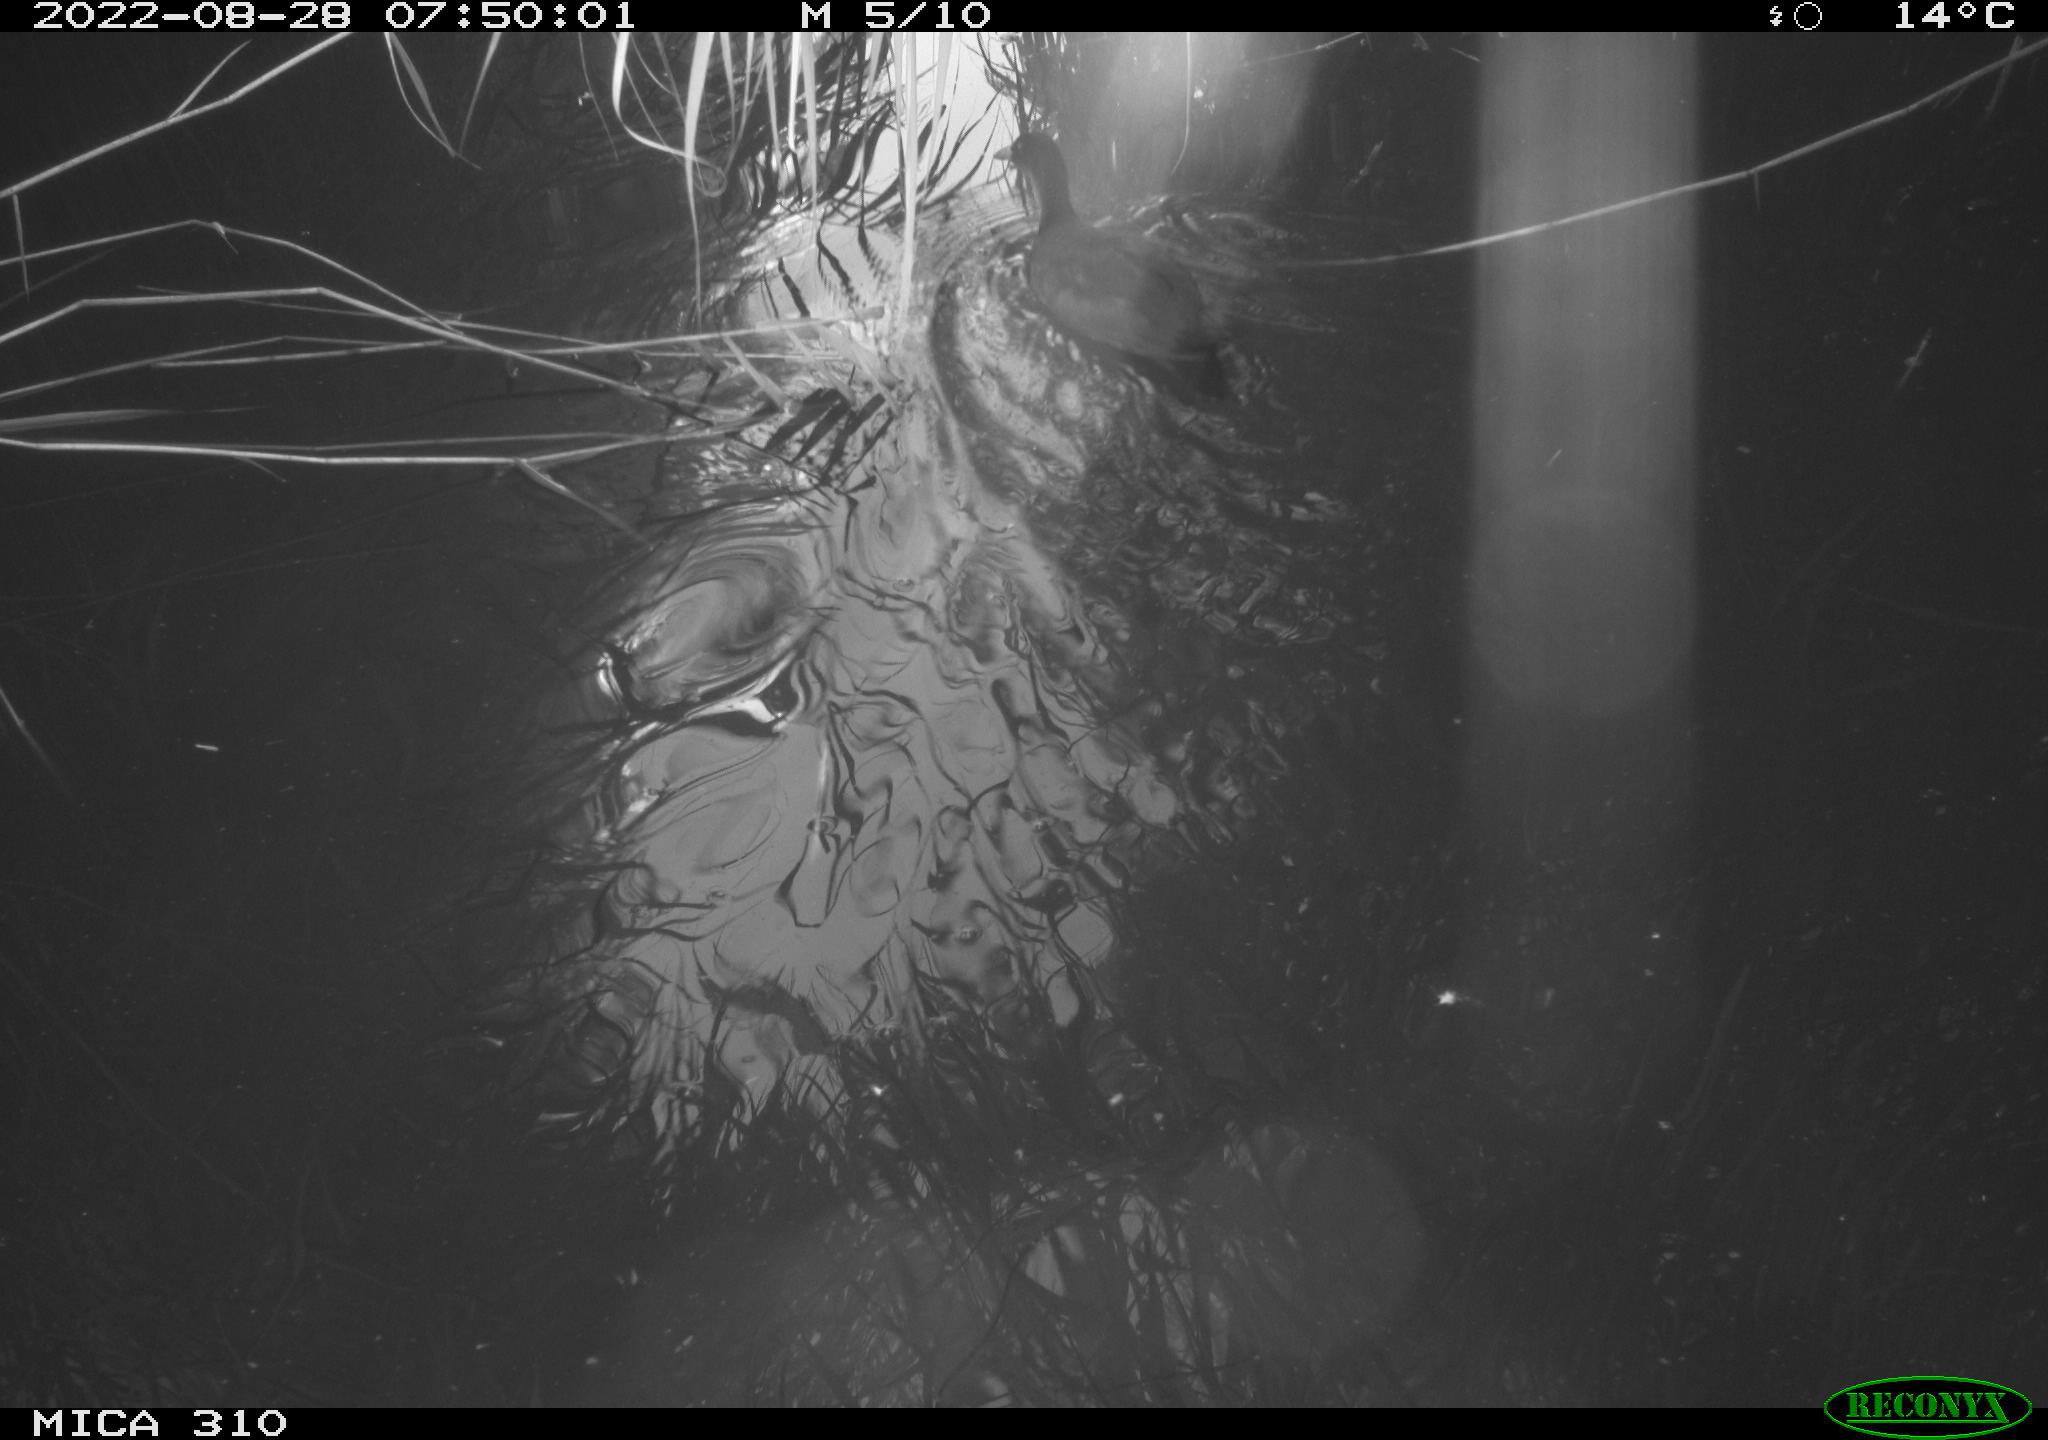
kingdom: Animalia
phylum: Chordata
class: Aves
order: Pelecaniformes
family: Ardeidae
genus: Ardea
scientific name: Ardea
